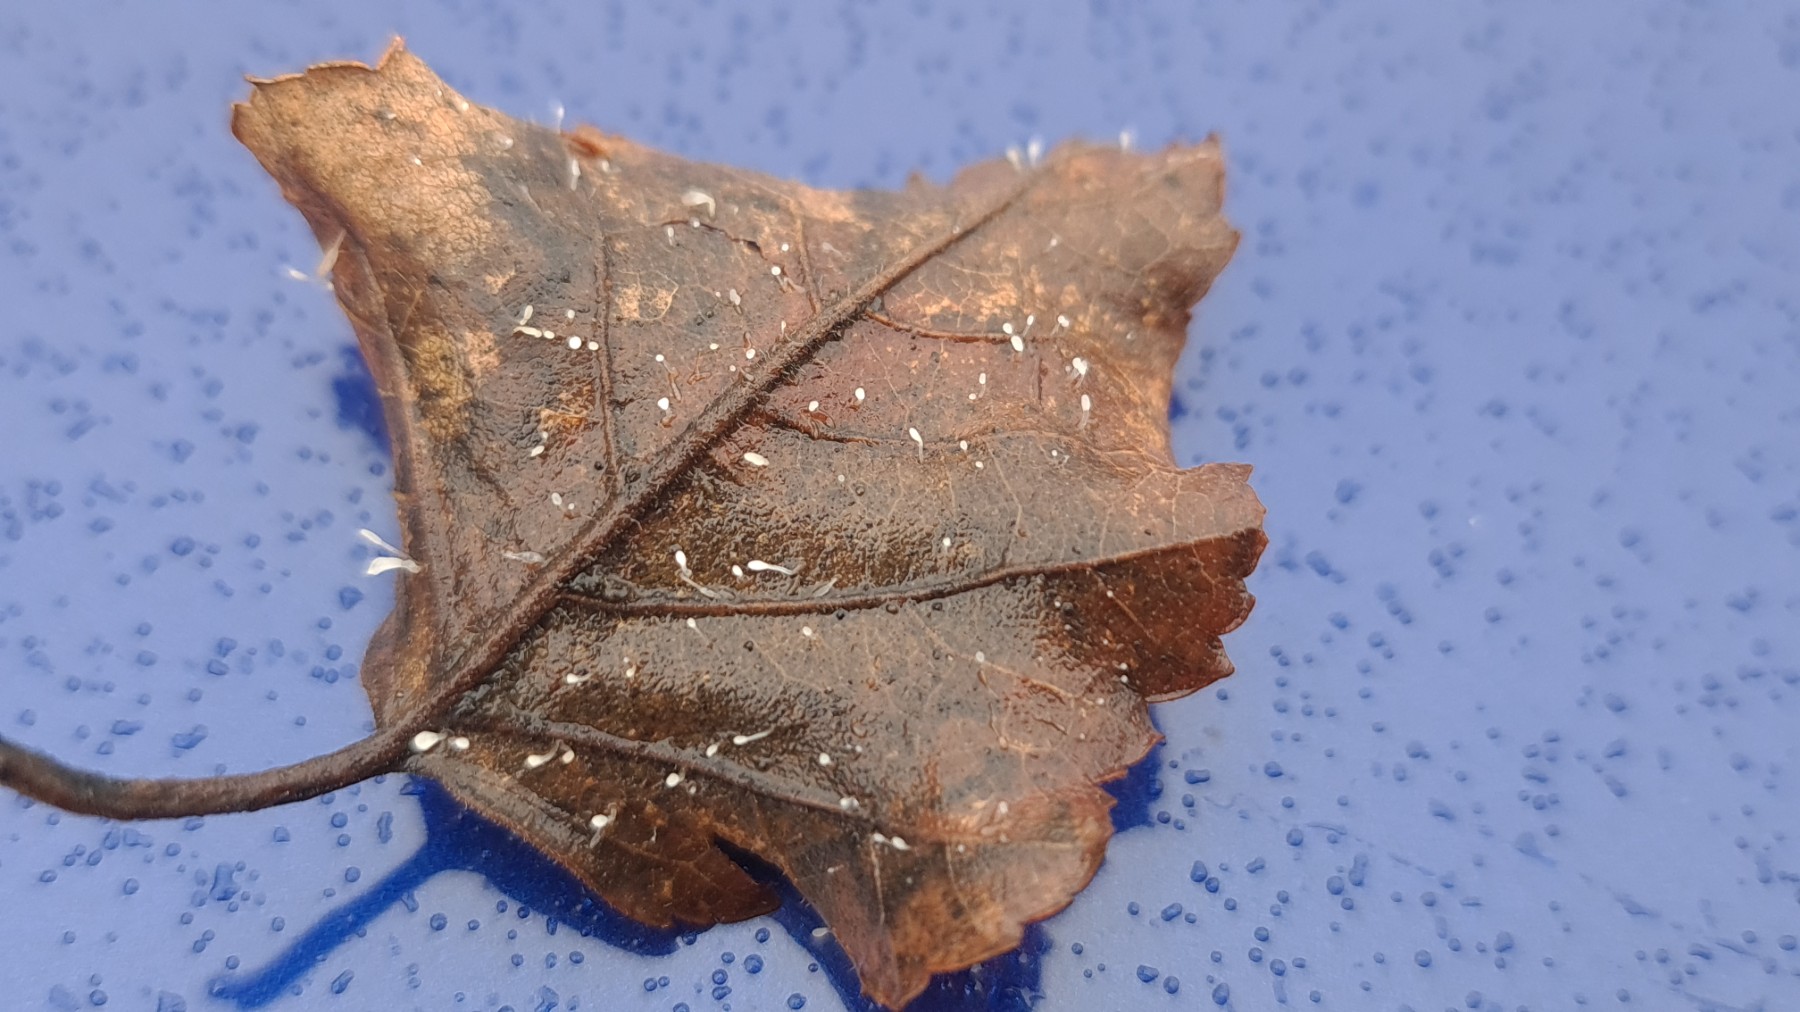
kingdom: Fungi
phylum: Basidiomycota
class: Agaricomycetes
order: Agaricales
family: Typhulaceae
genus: Typhula
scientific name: Typhula setipes
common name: liden trådkølle
